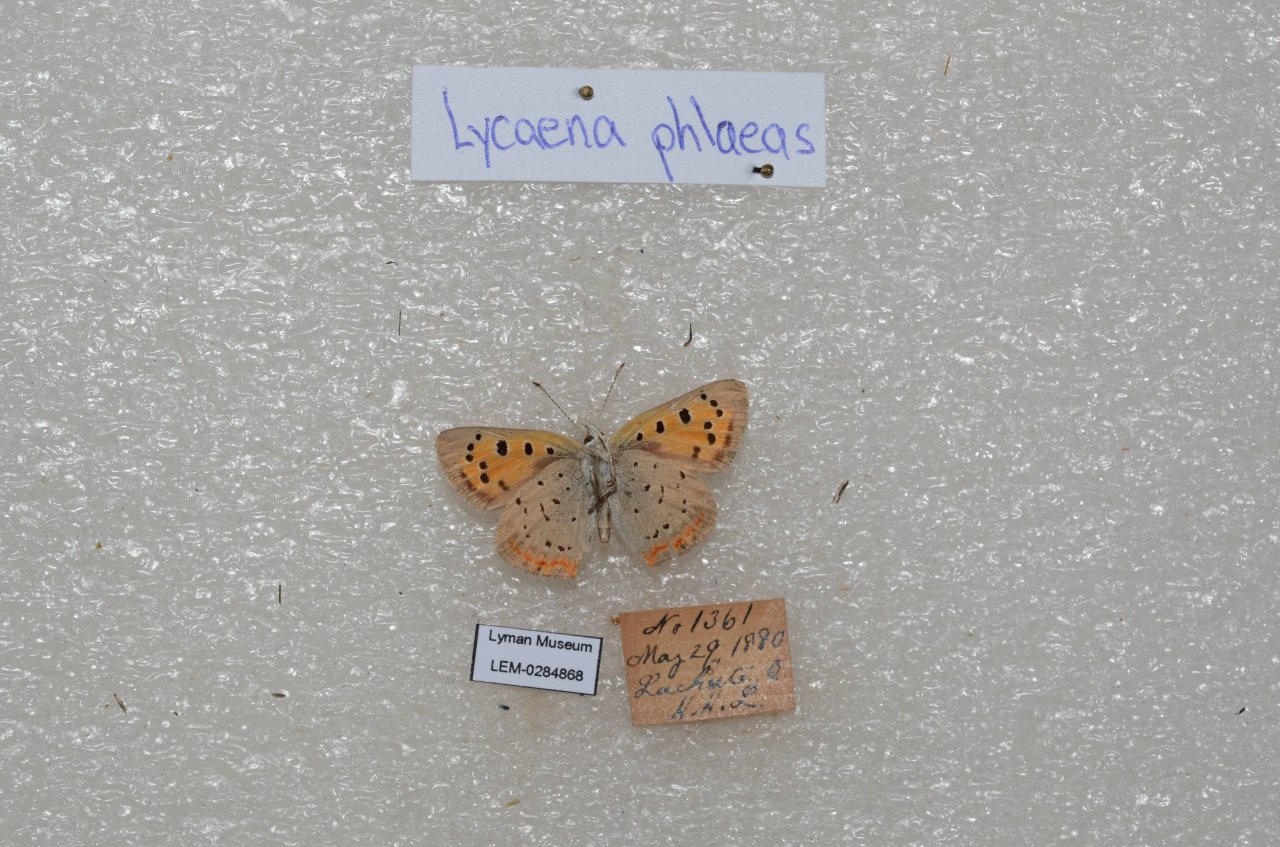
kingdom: Animalia
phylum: Arthropoda
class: Insecta
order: Lepidoptera
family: Lycaenidae
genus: Lycaena
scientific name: Lycaena phlaeas
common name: American Copper
